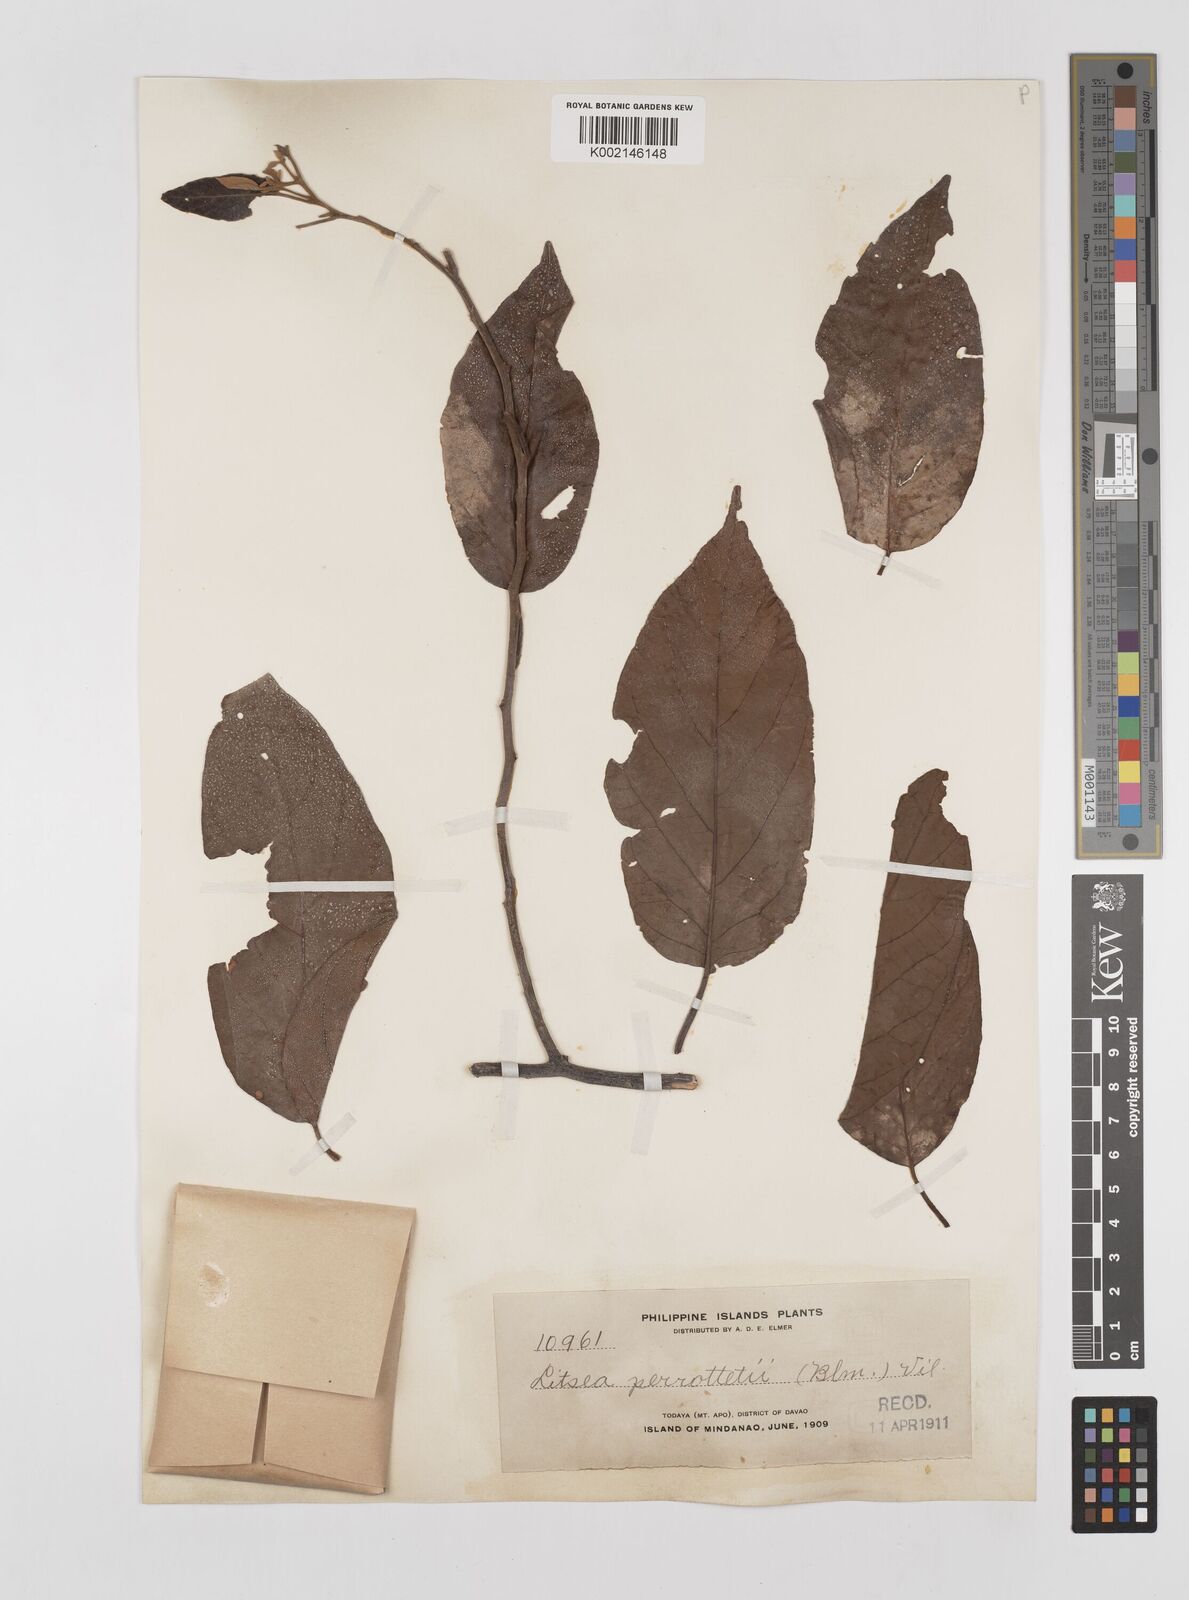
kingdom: Plantae
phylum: Tracheophyta
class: Magnoliopsida
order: Laurales
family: Lauraceae
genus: Litsea
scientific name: Litsea cordata
